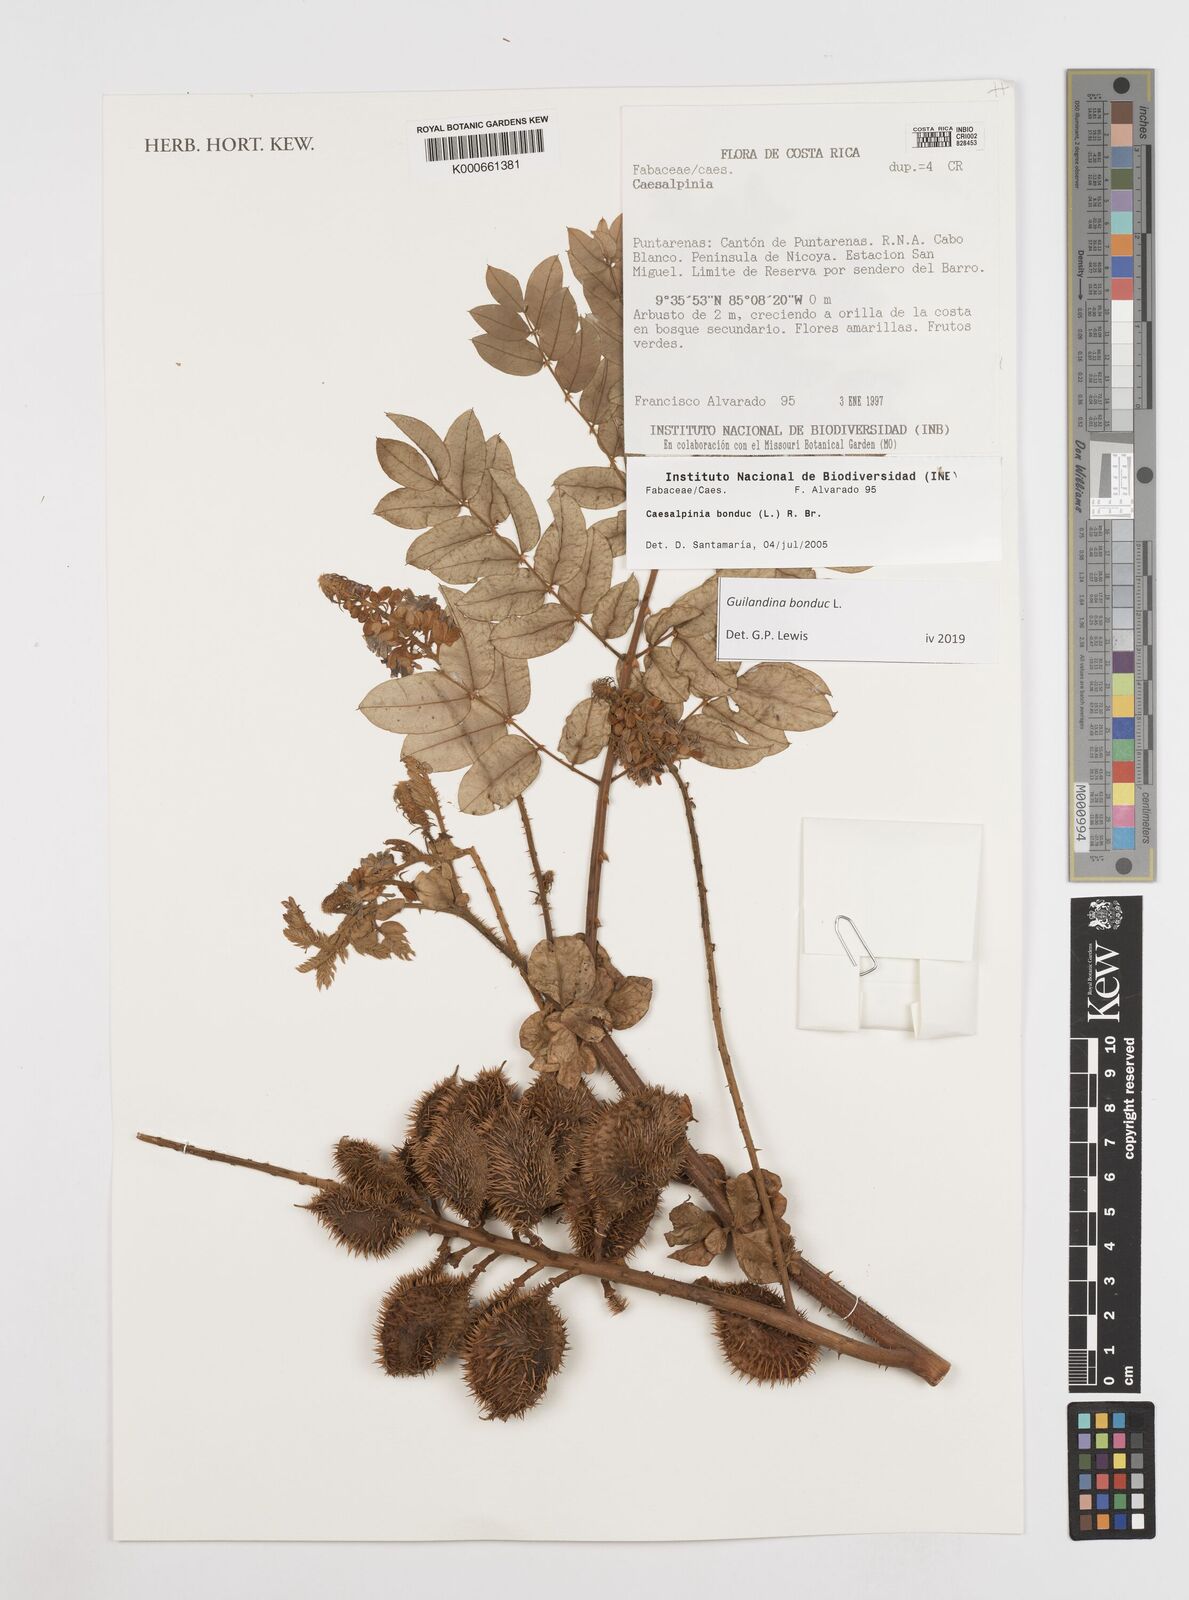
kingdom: Plantae
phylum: Tracheophyta
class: Magnoliopsida
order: Fabales
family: Fabaceae
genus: Caesalpinia
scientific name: Caesalpinia
